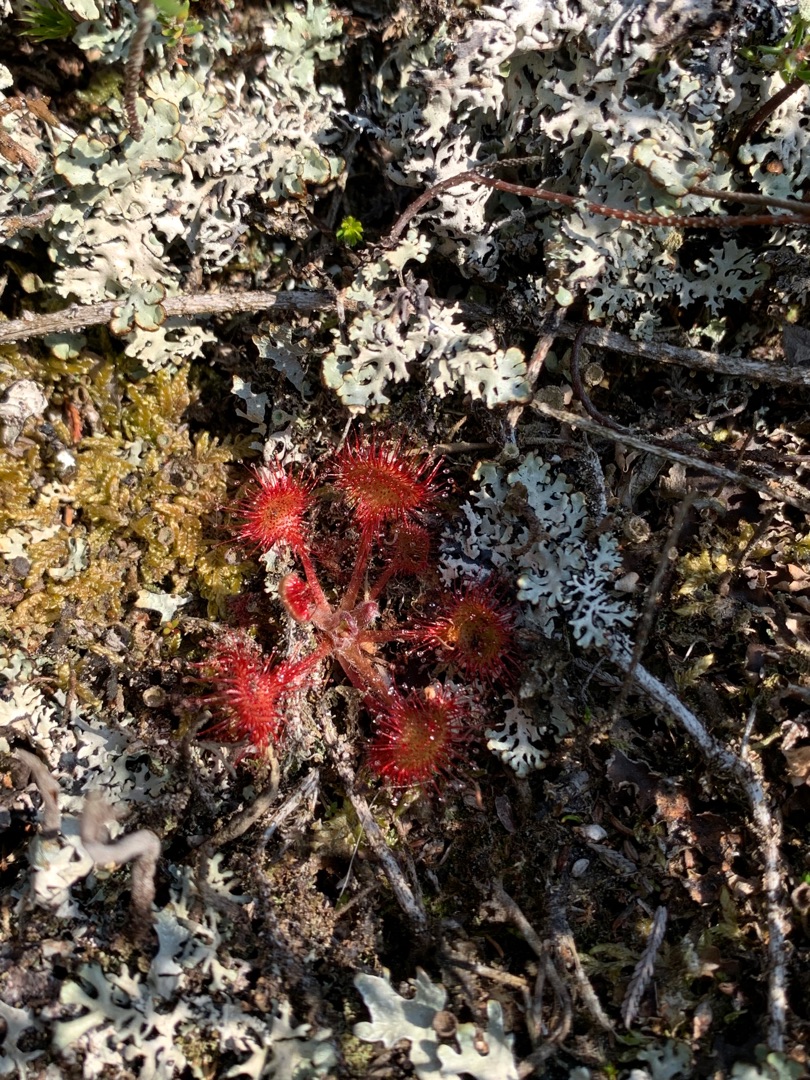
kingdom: Plantae
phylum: Tracheophyta
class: Magnoliopsida
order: Caryophyllales
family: Droseraceae
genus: Drosera
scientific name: Drosera rotundifolia
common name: Rundbladet soldug
